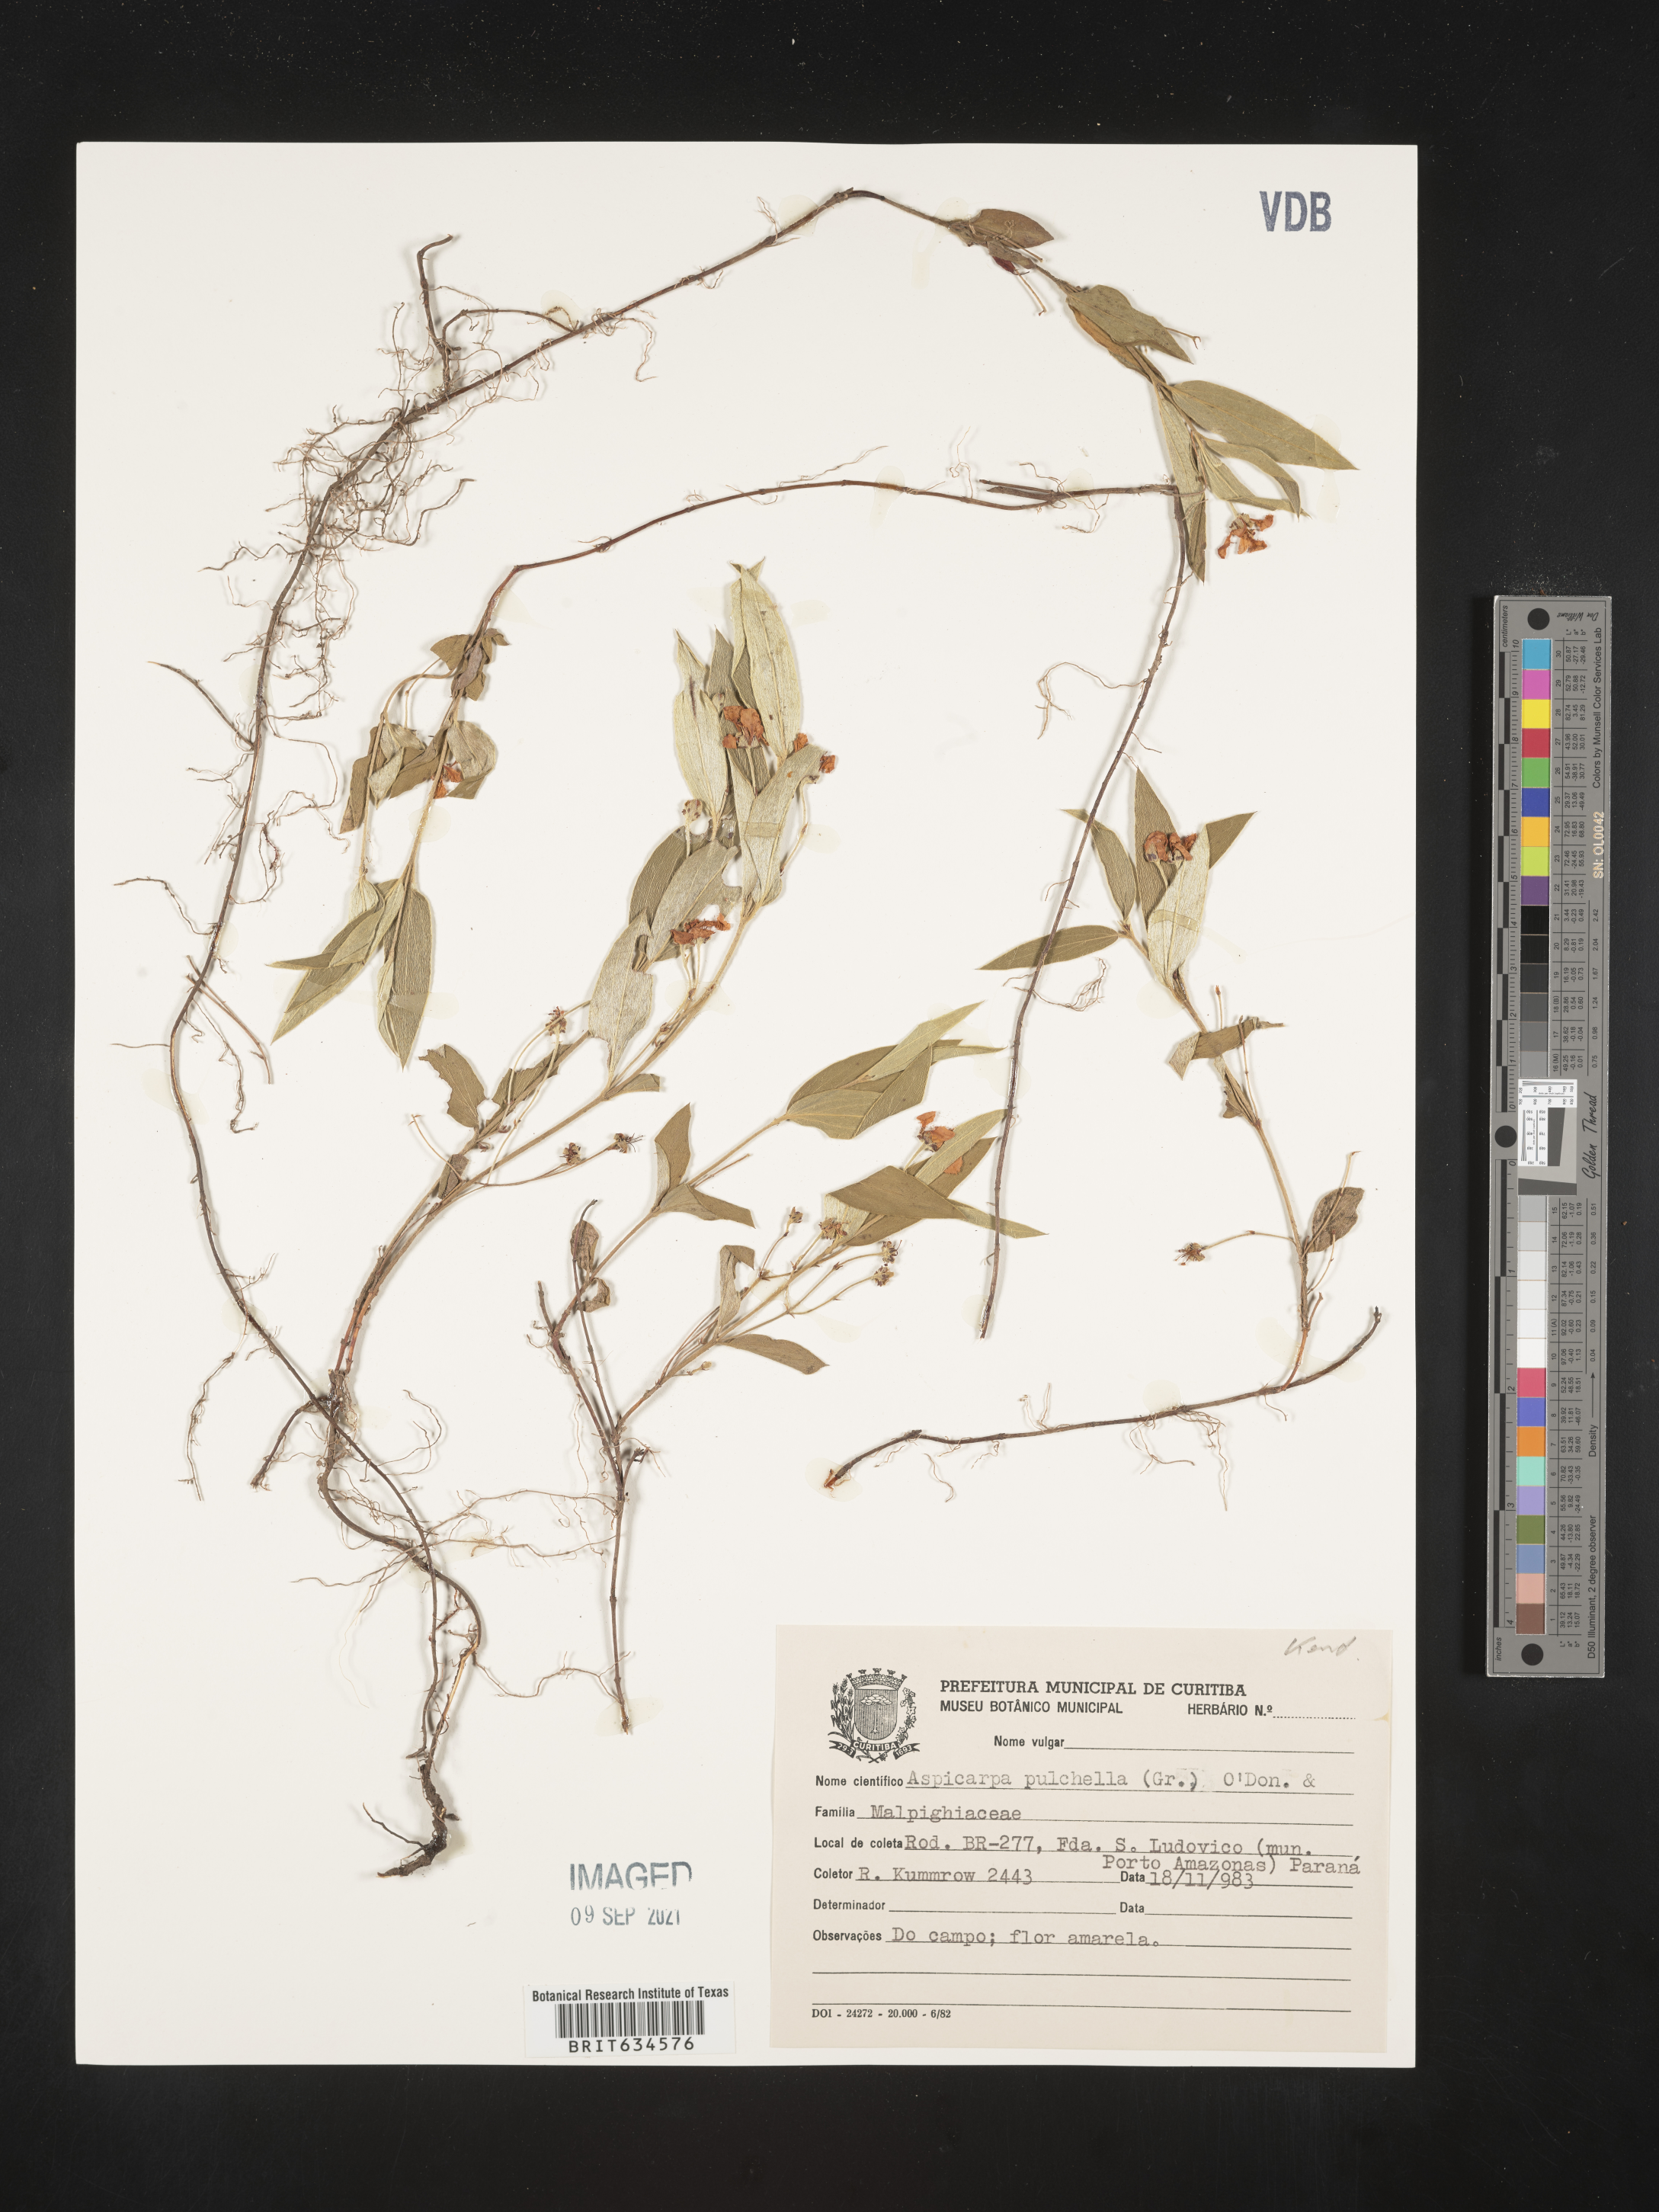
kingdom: Plantae
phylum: Tracheophyta
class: Magnoliopsida
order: Malpighiales
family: Malpighiaceae
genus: Aspicarpa
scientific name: Aspicarpa
